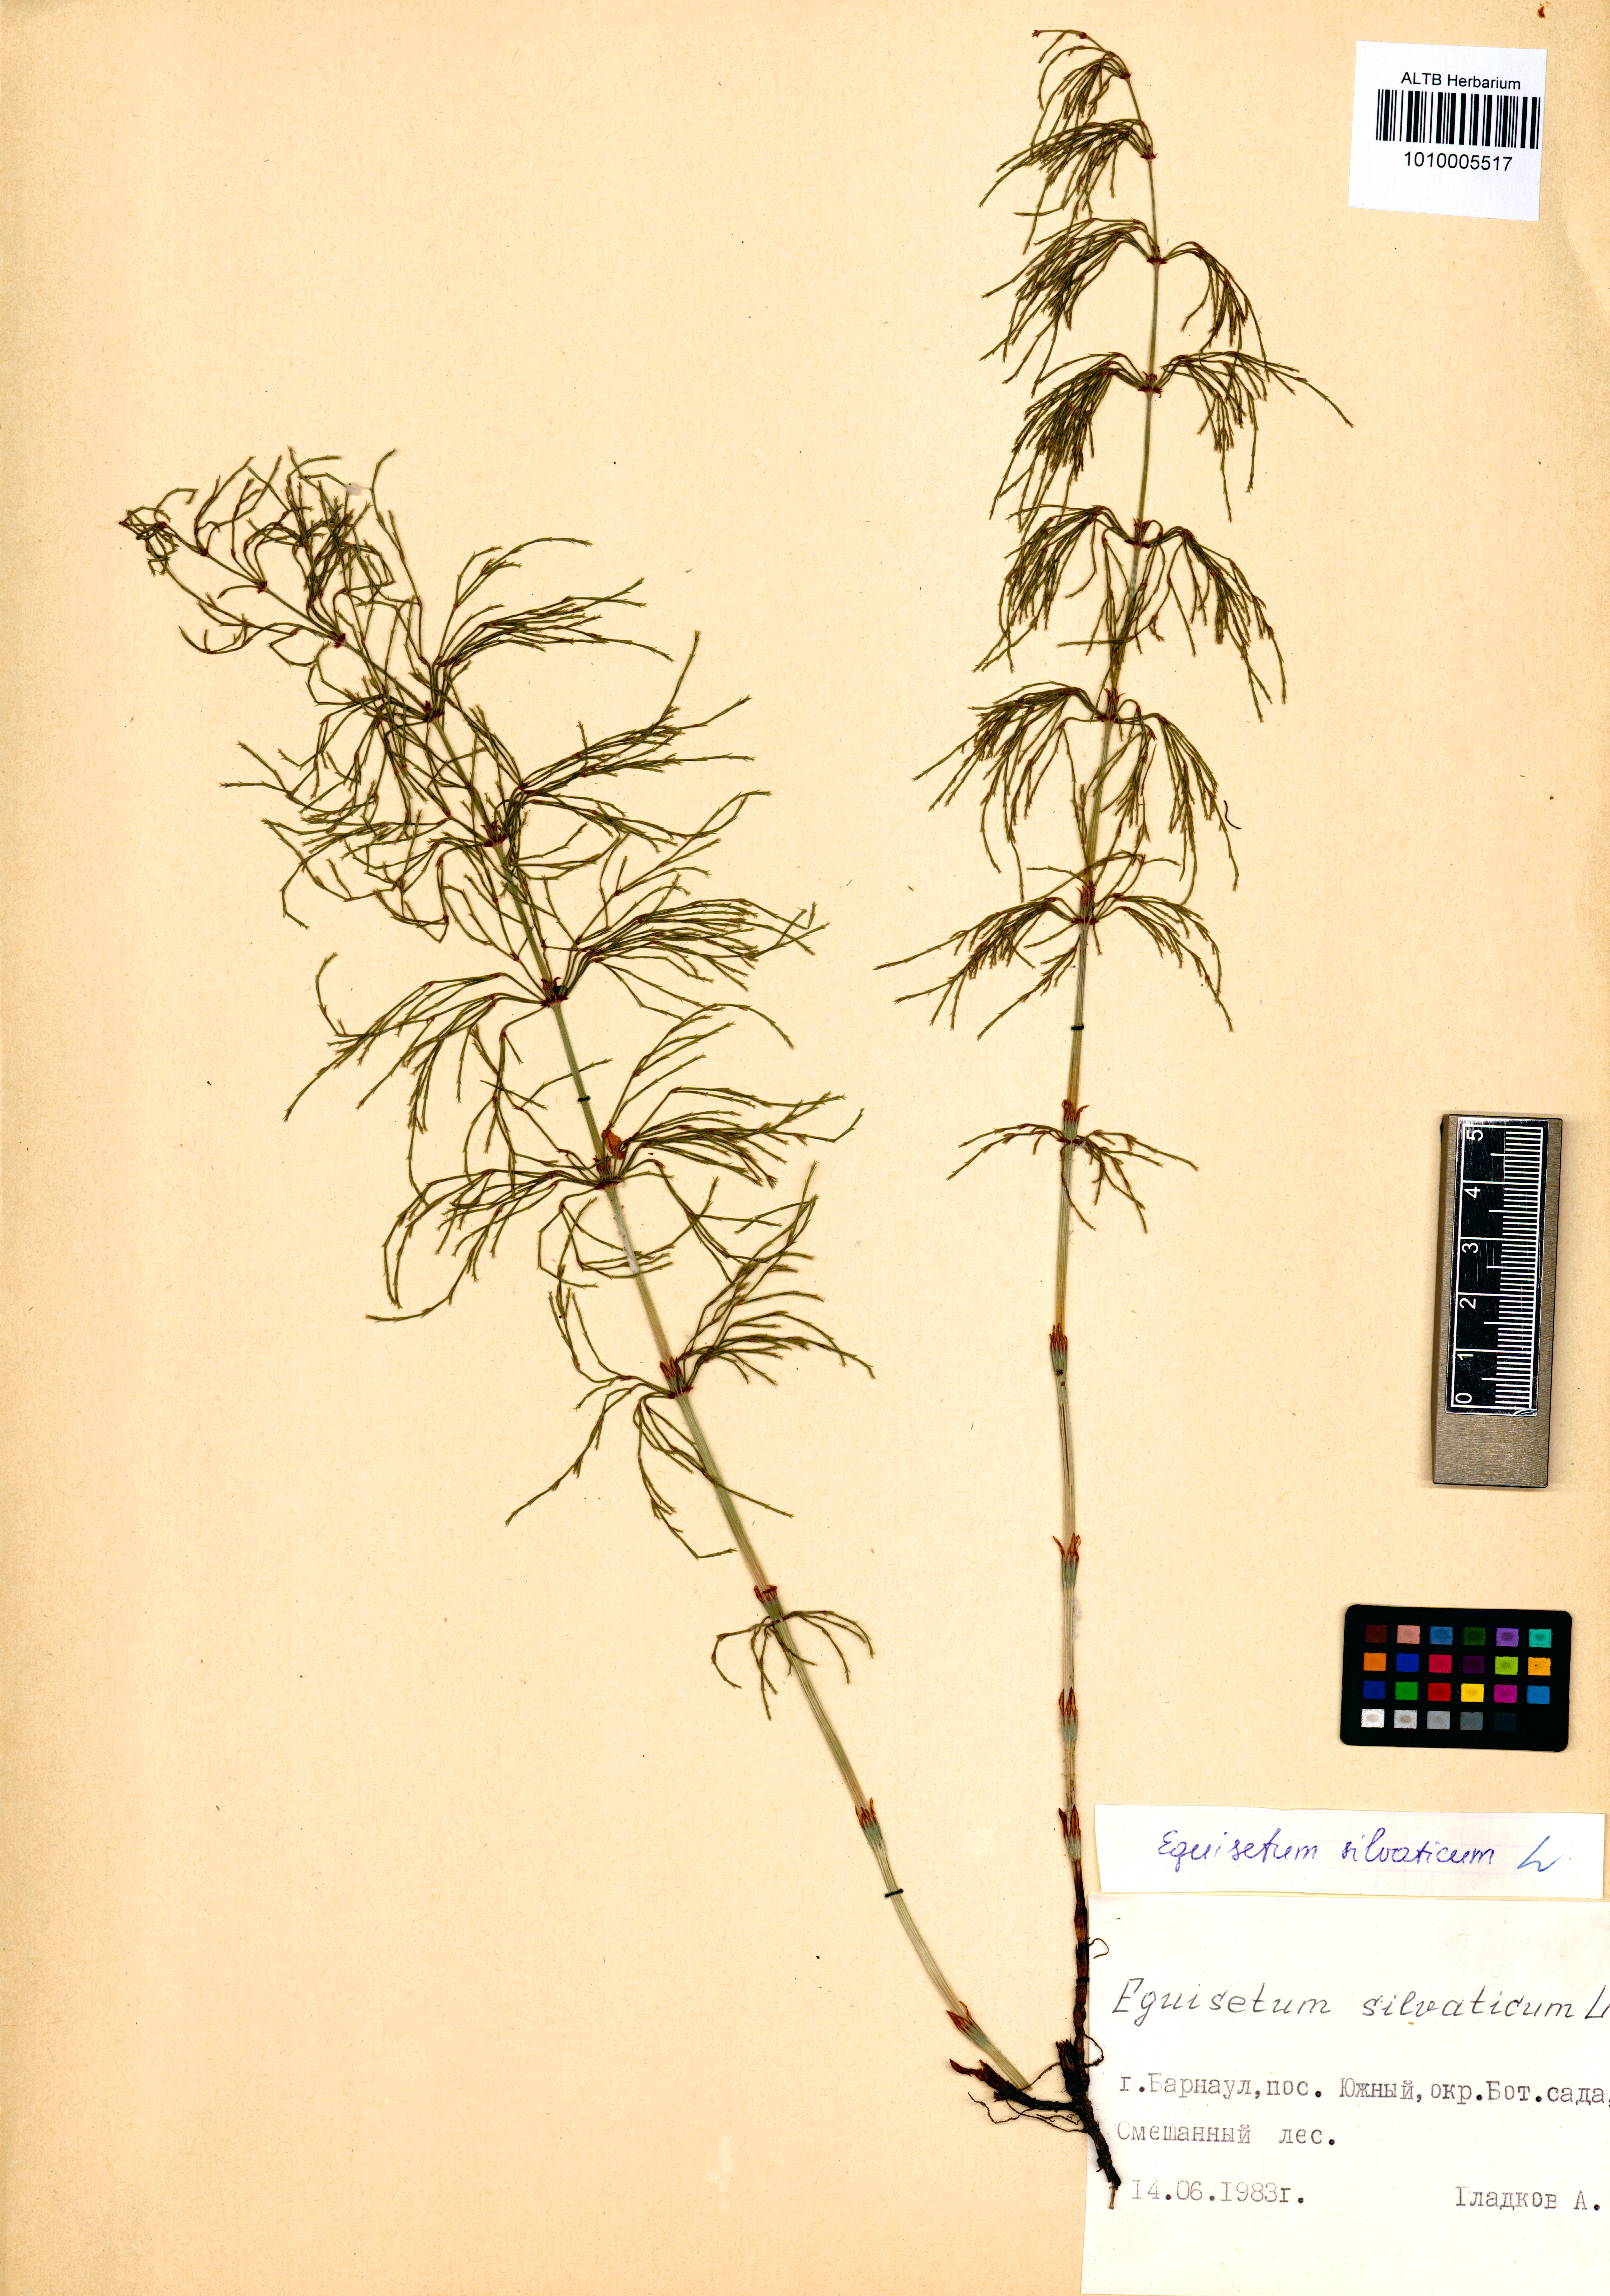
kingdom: Plantae
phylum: Tracheophyta
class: Polypodiopsida
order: Equisetales
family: Equisetaceae
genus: Equisetum
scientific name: Equisetum sylvaticum
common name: Wood horsetail
